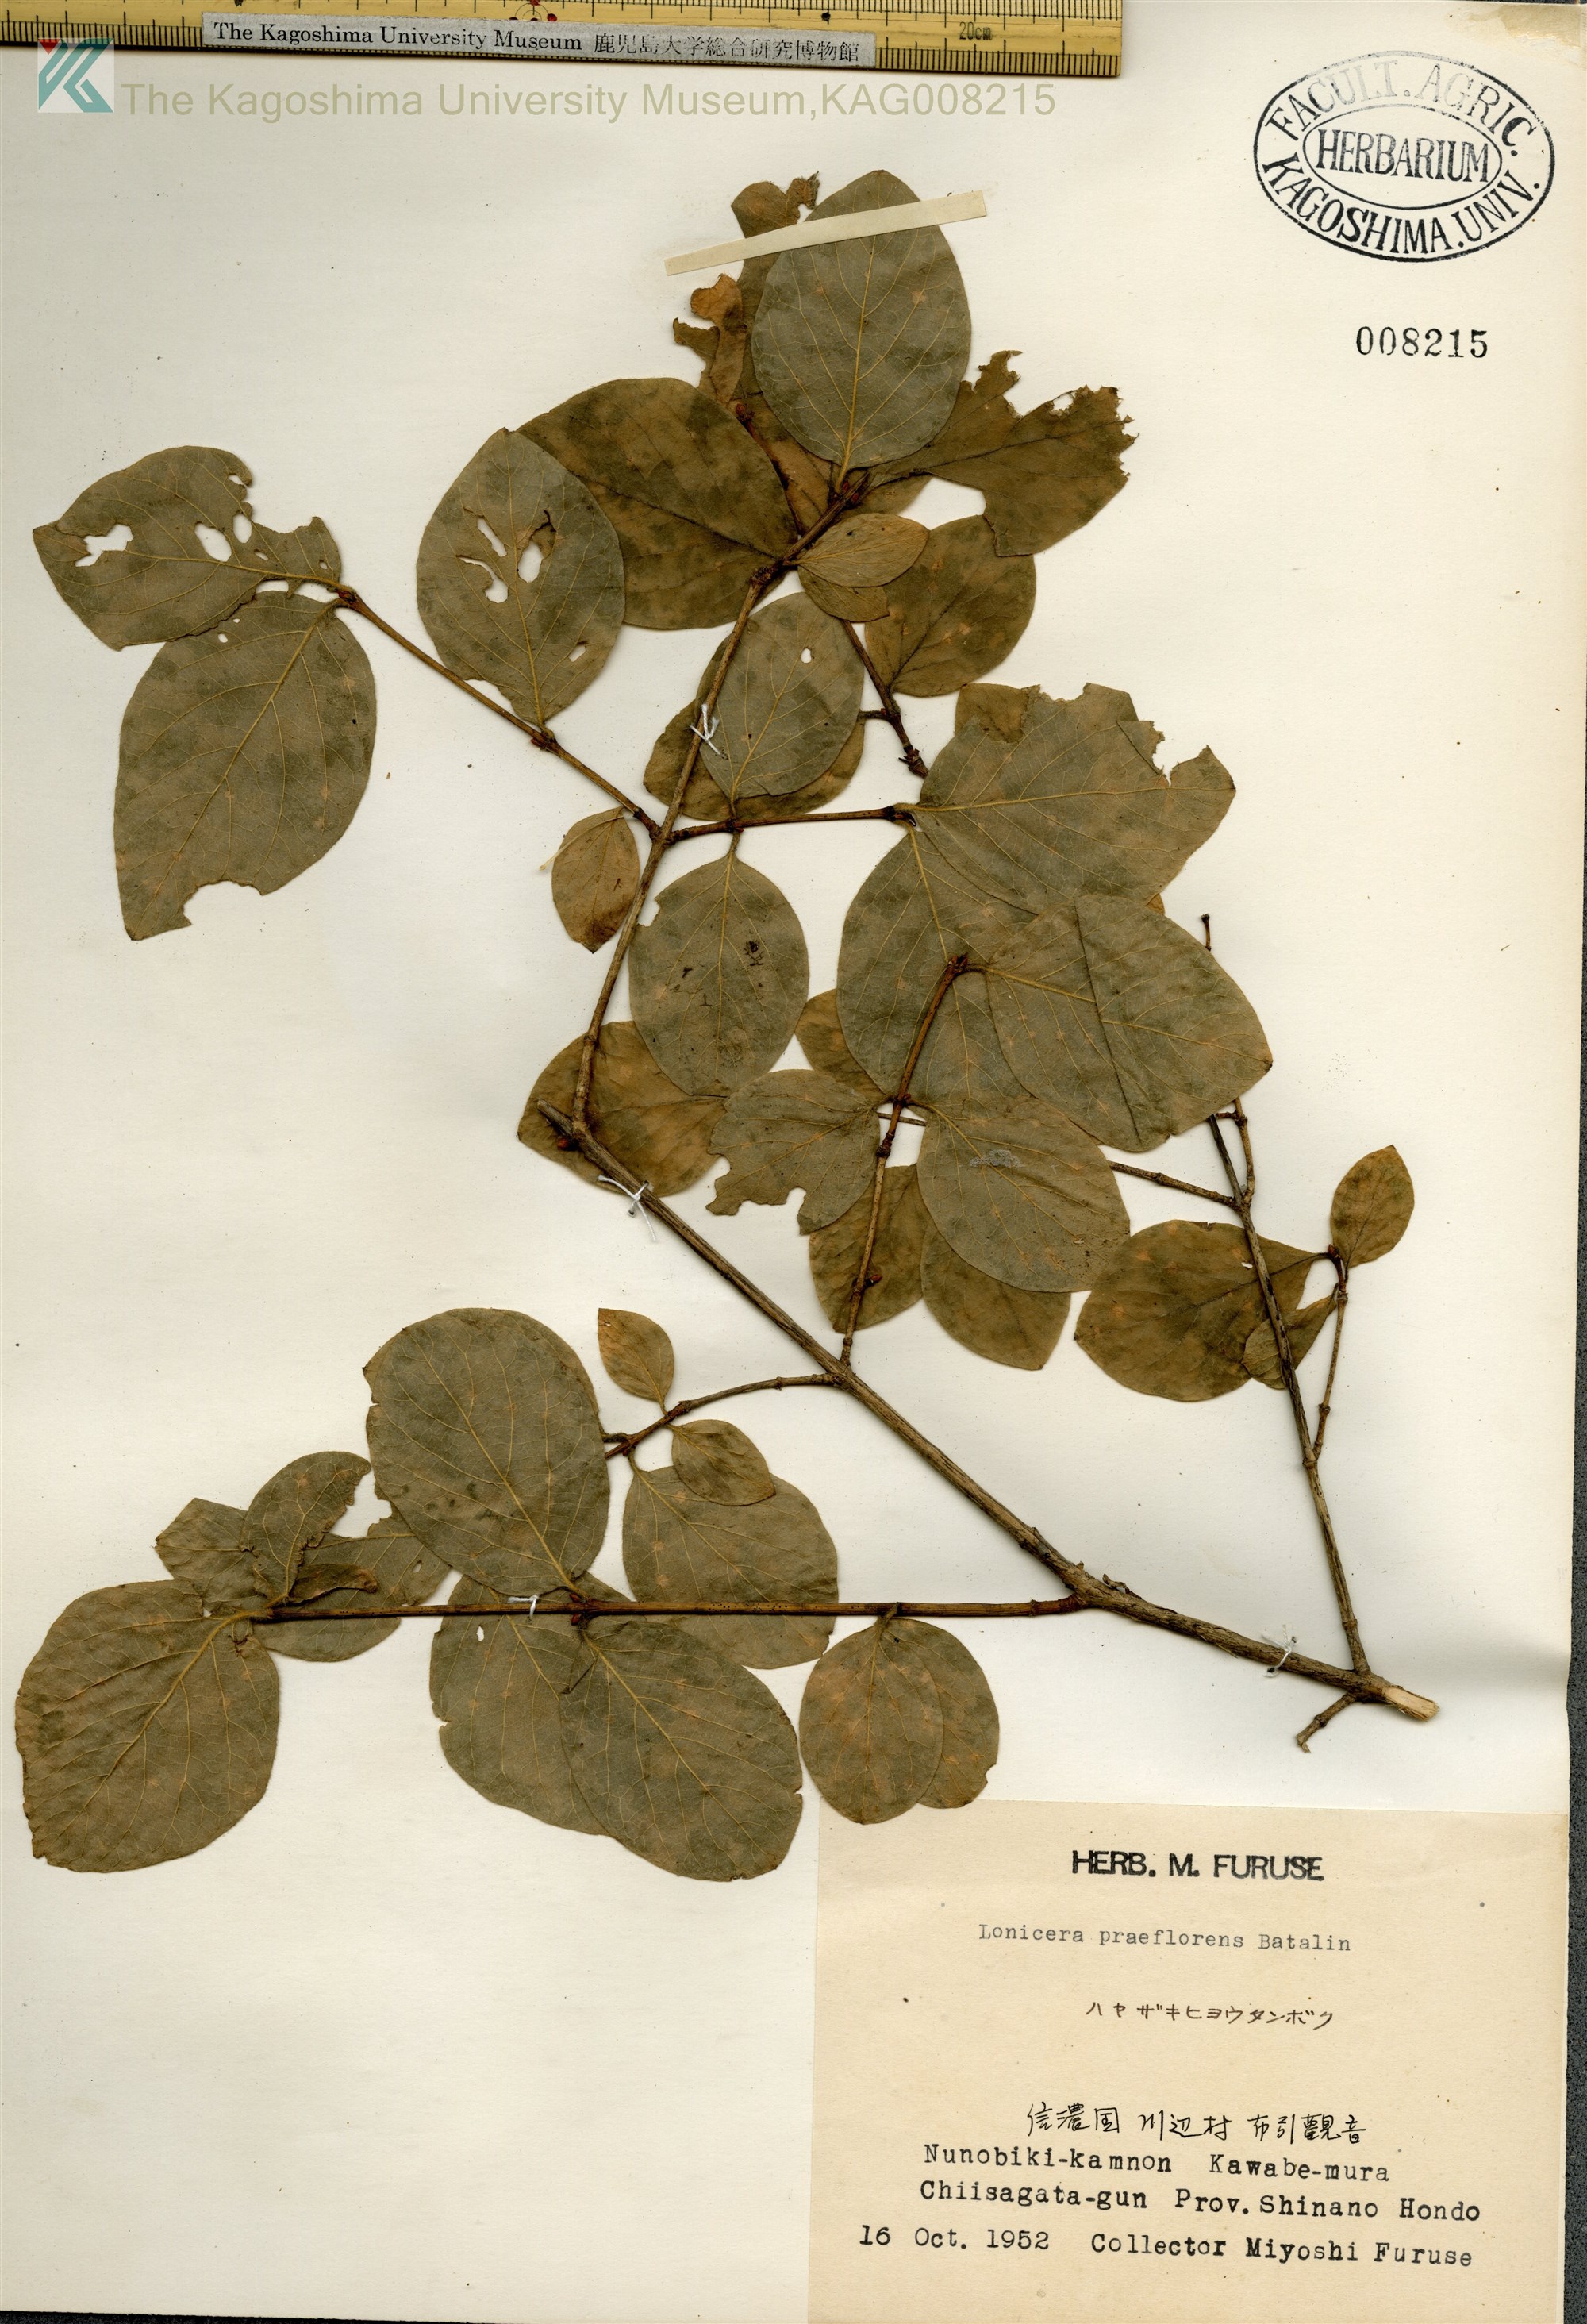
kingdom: Plantae
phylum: Tracheophyta
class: Magnoliopsida
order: Dipsacales
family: Caprifoliaceae
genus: Lonicera
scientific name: Lonicera praeflorens
